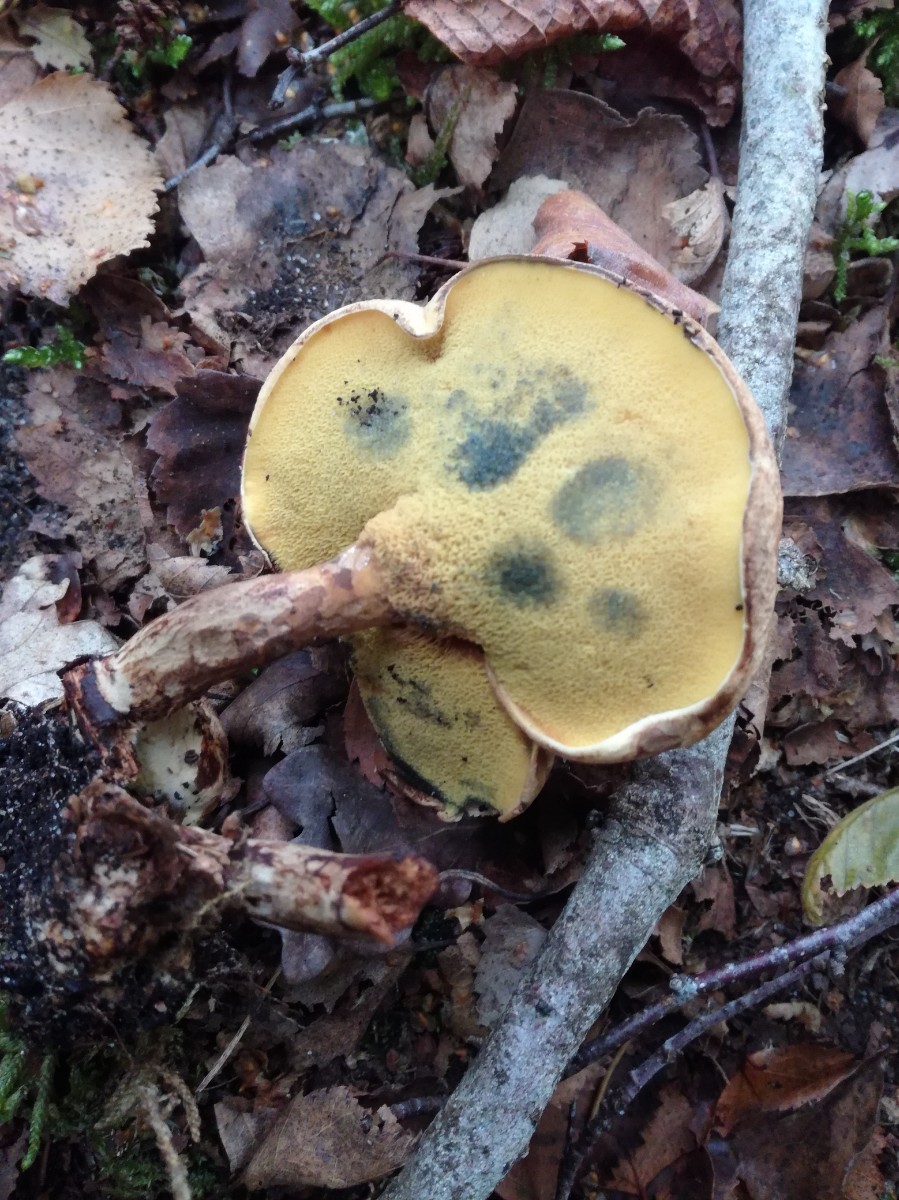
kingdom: Fungi
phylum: Basidiomycota
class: Agaricomycetes
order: Boletales
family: Paxillaceae
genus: Gyrodon
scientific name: Gyrodon lividus
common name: ellerørhat
